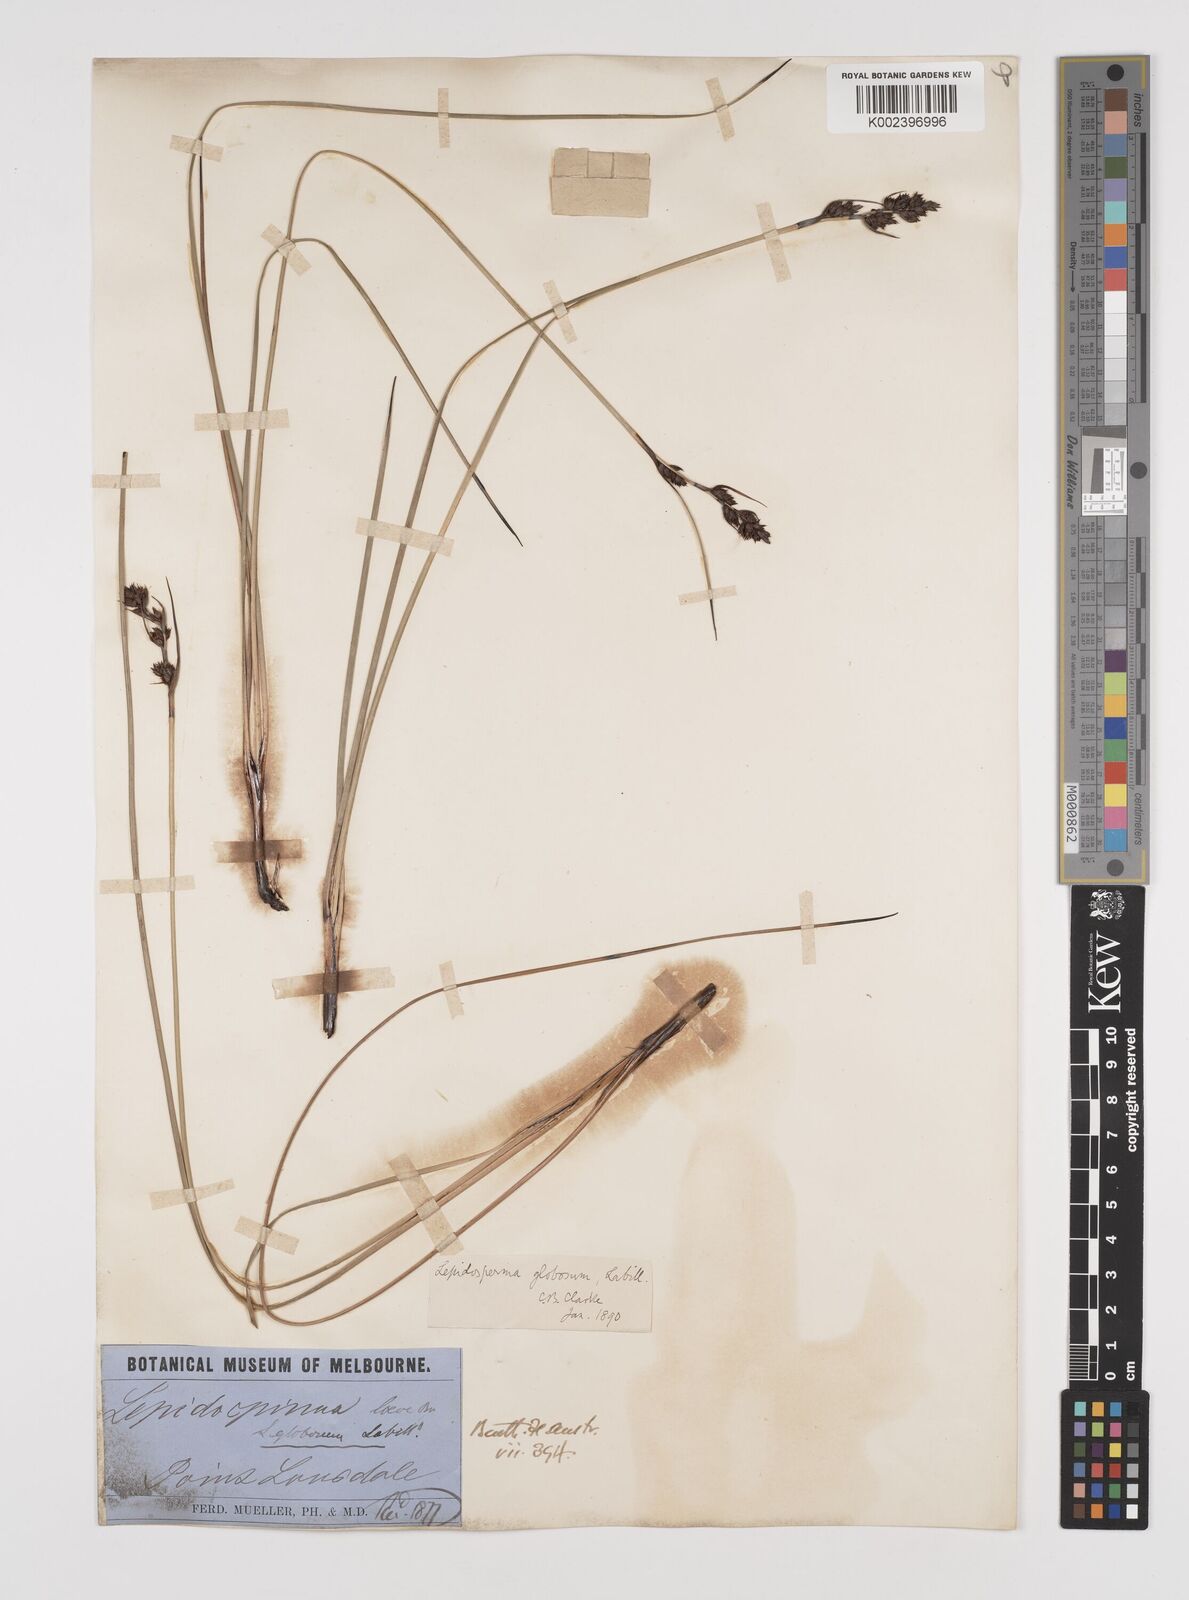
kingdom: Plantae
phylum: Tracheophyta
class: Liliopsida
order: Poales
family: Cyperaceae
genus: Lepidosperma
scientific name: Lepidosperma globosum
